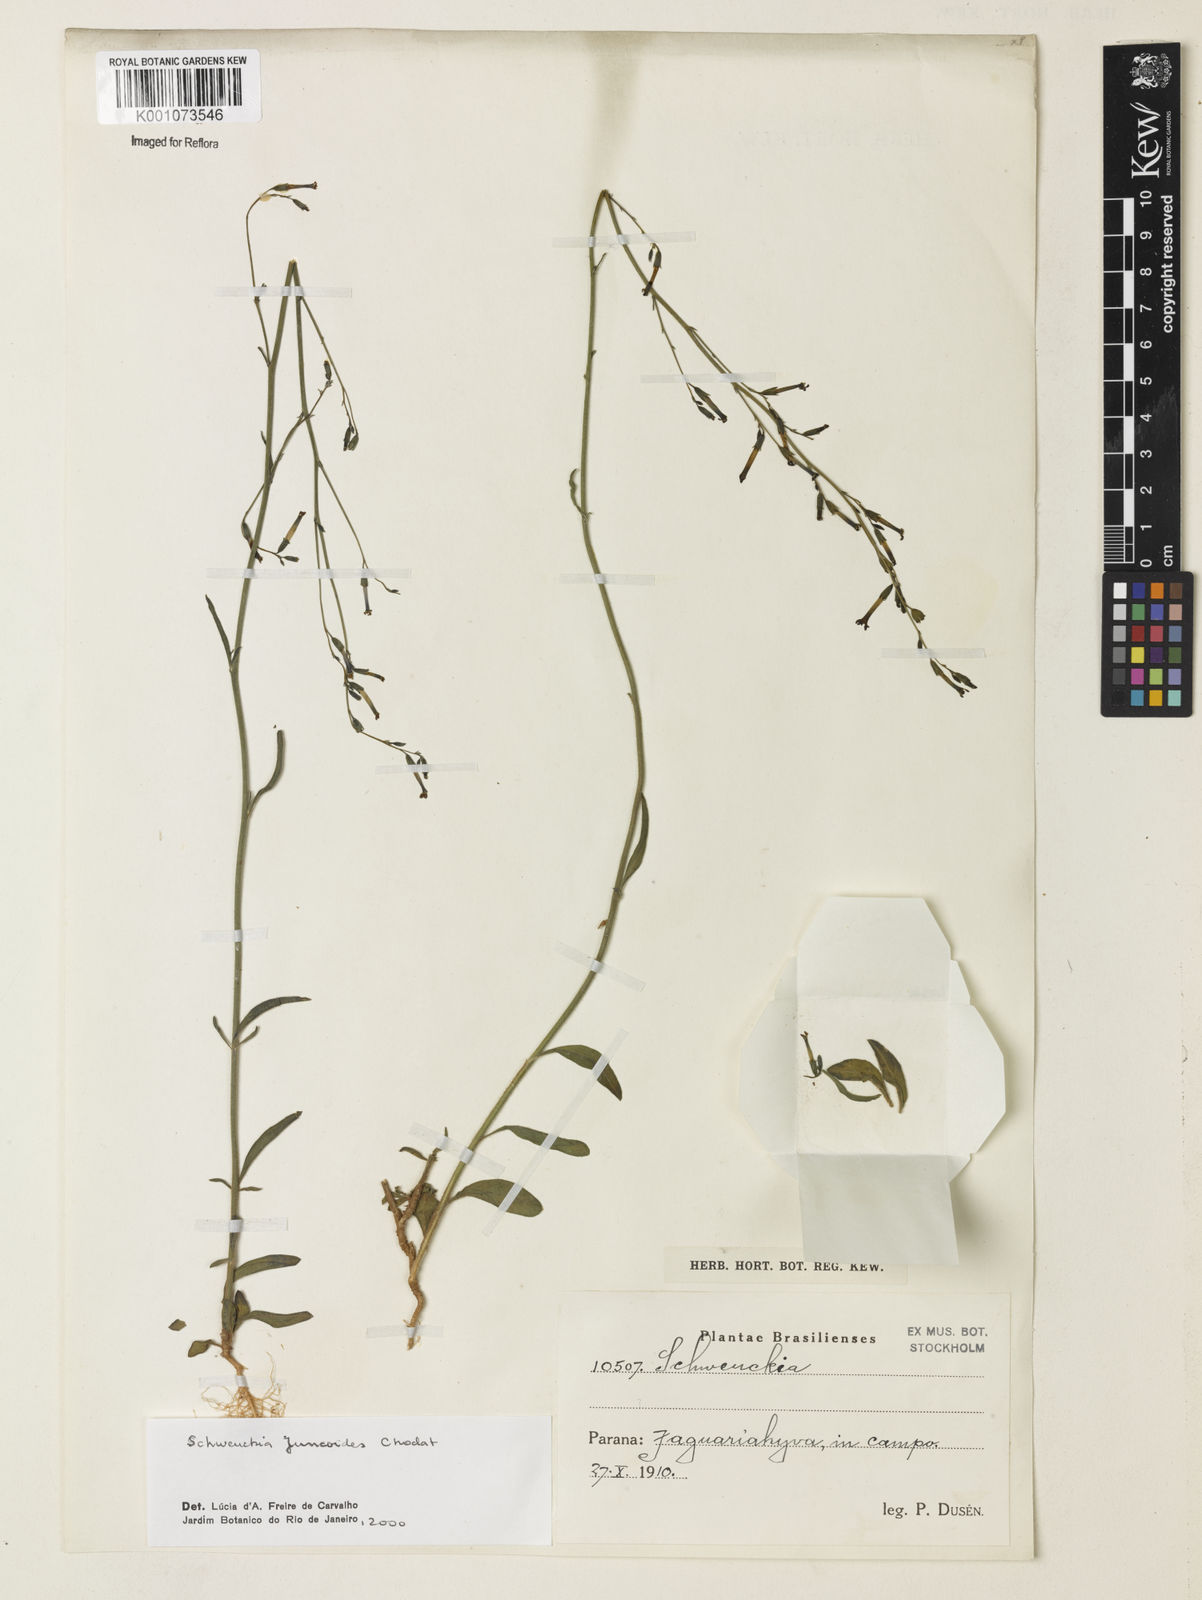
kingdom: Plantae
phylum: Tracheophyta
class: Magnoliopsida
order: Solanales
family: Solanaceae
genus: Schwenckia
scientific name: Schwenckia juncoides
